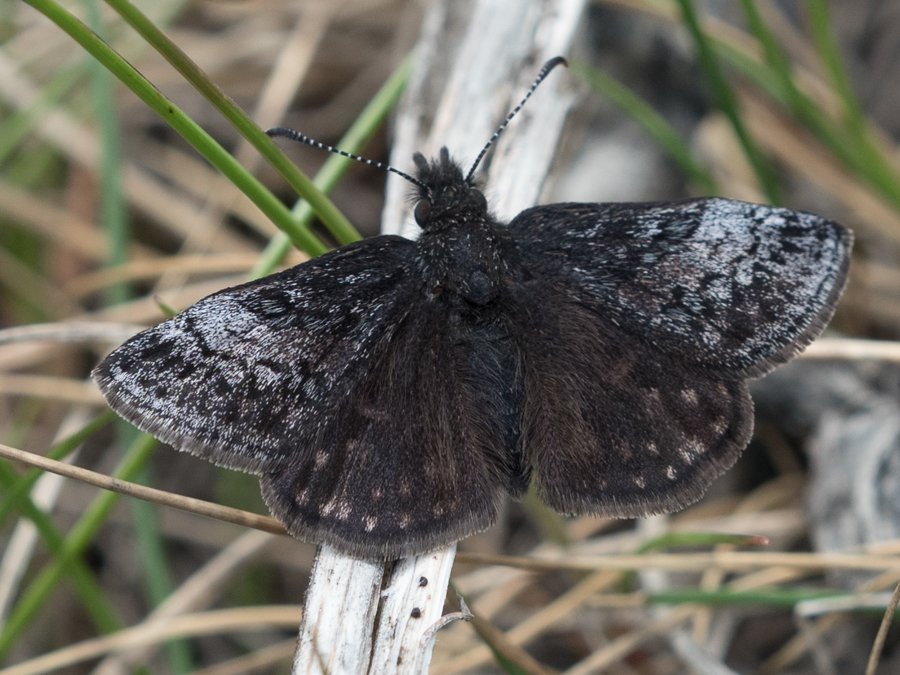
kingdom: Animalia
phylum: Arthropoda
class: Insecta
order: Lepidoptera
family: Hesperiidae
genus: Erynnis
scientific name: Erynnis icelus
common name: Dreamy Duskywing
